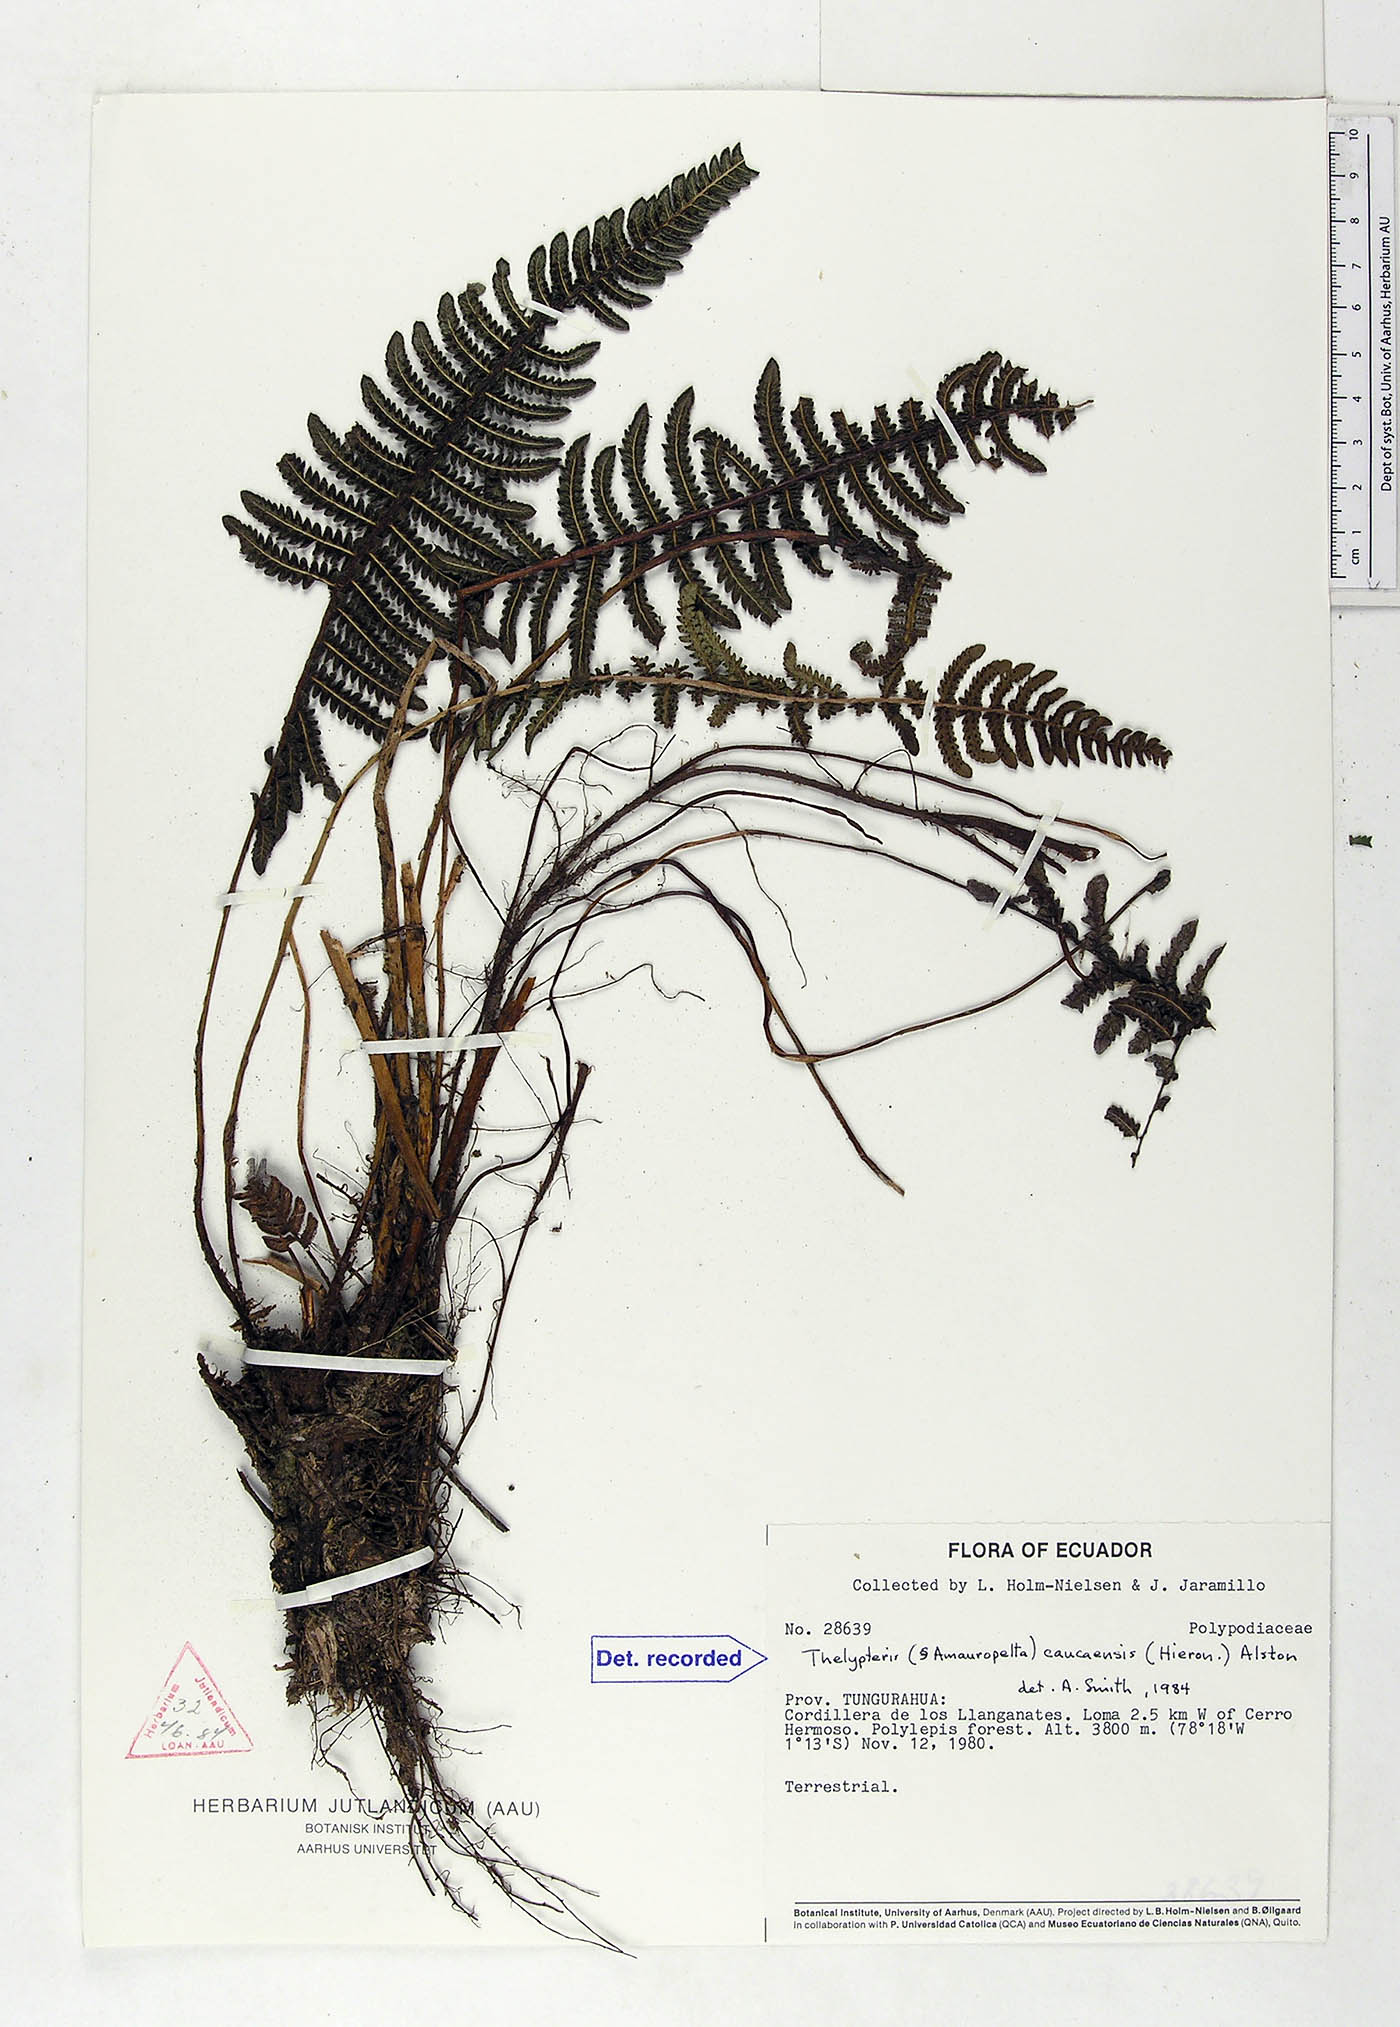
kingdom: Plantae
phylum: Tracheophyta
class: Polypodiopsida
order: Polypodiales
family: Thelypteridaceae
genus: Amauropelta
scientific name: Amauropelta caucaensis
